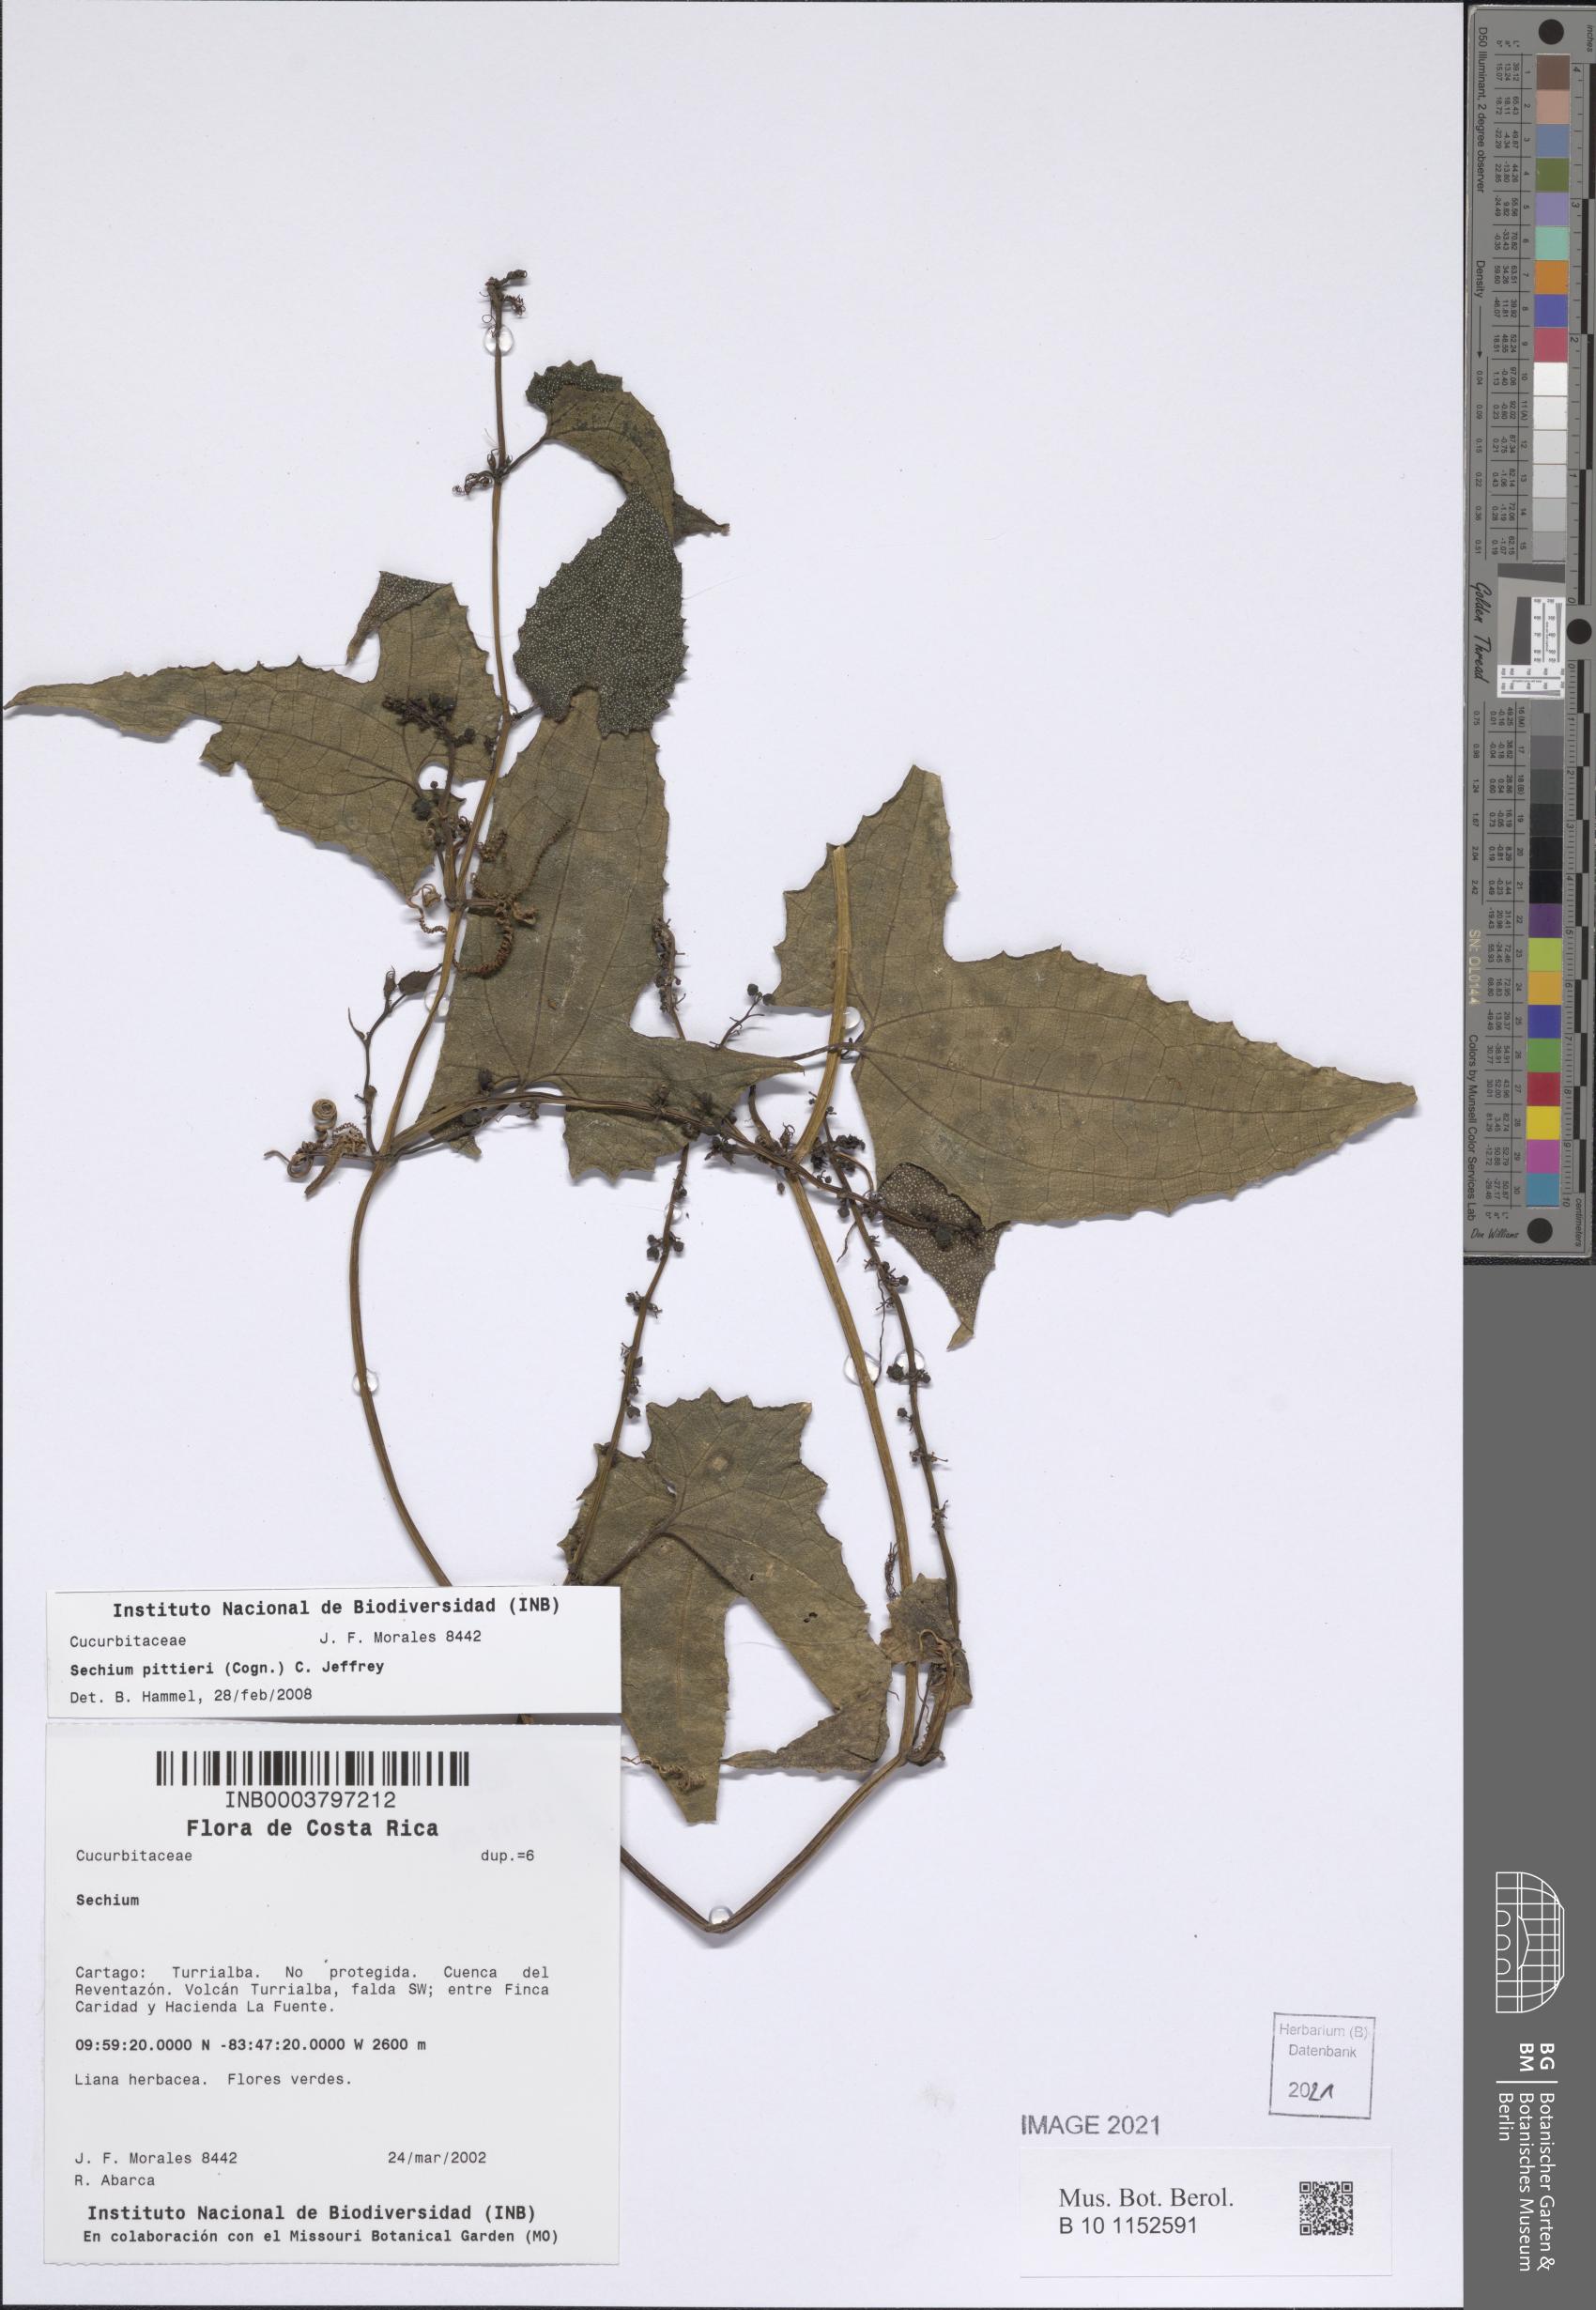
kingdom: Plantae
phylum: Tracheophyta
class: Magnoliopsida
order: Cucurbitales
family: Cucurbitaceae
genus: Frantzia
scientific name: Frantzia pittieri
